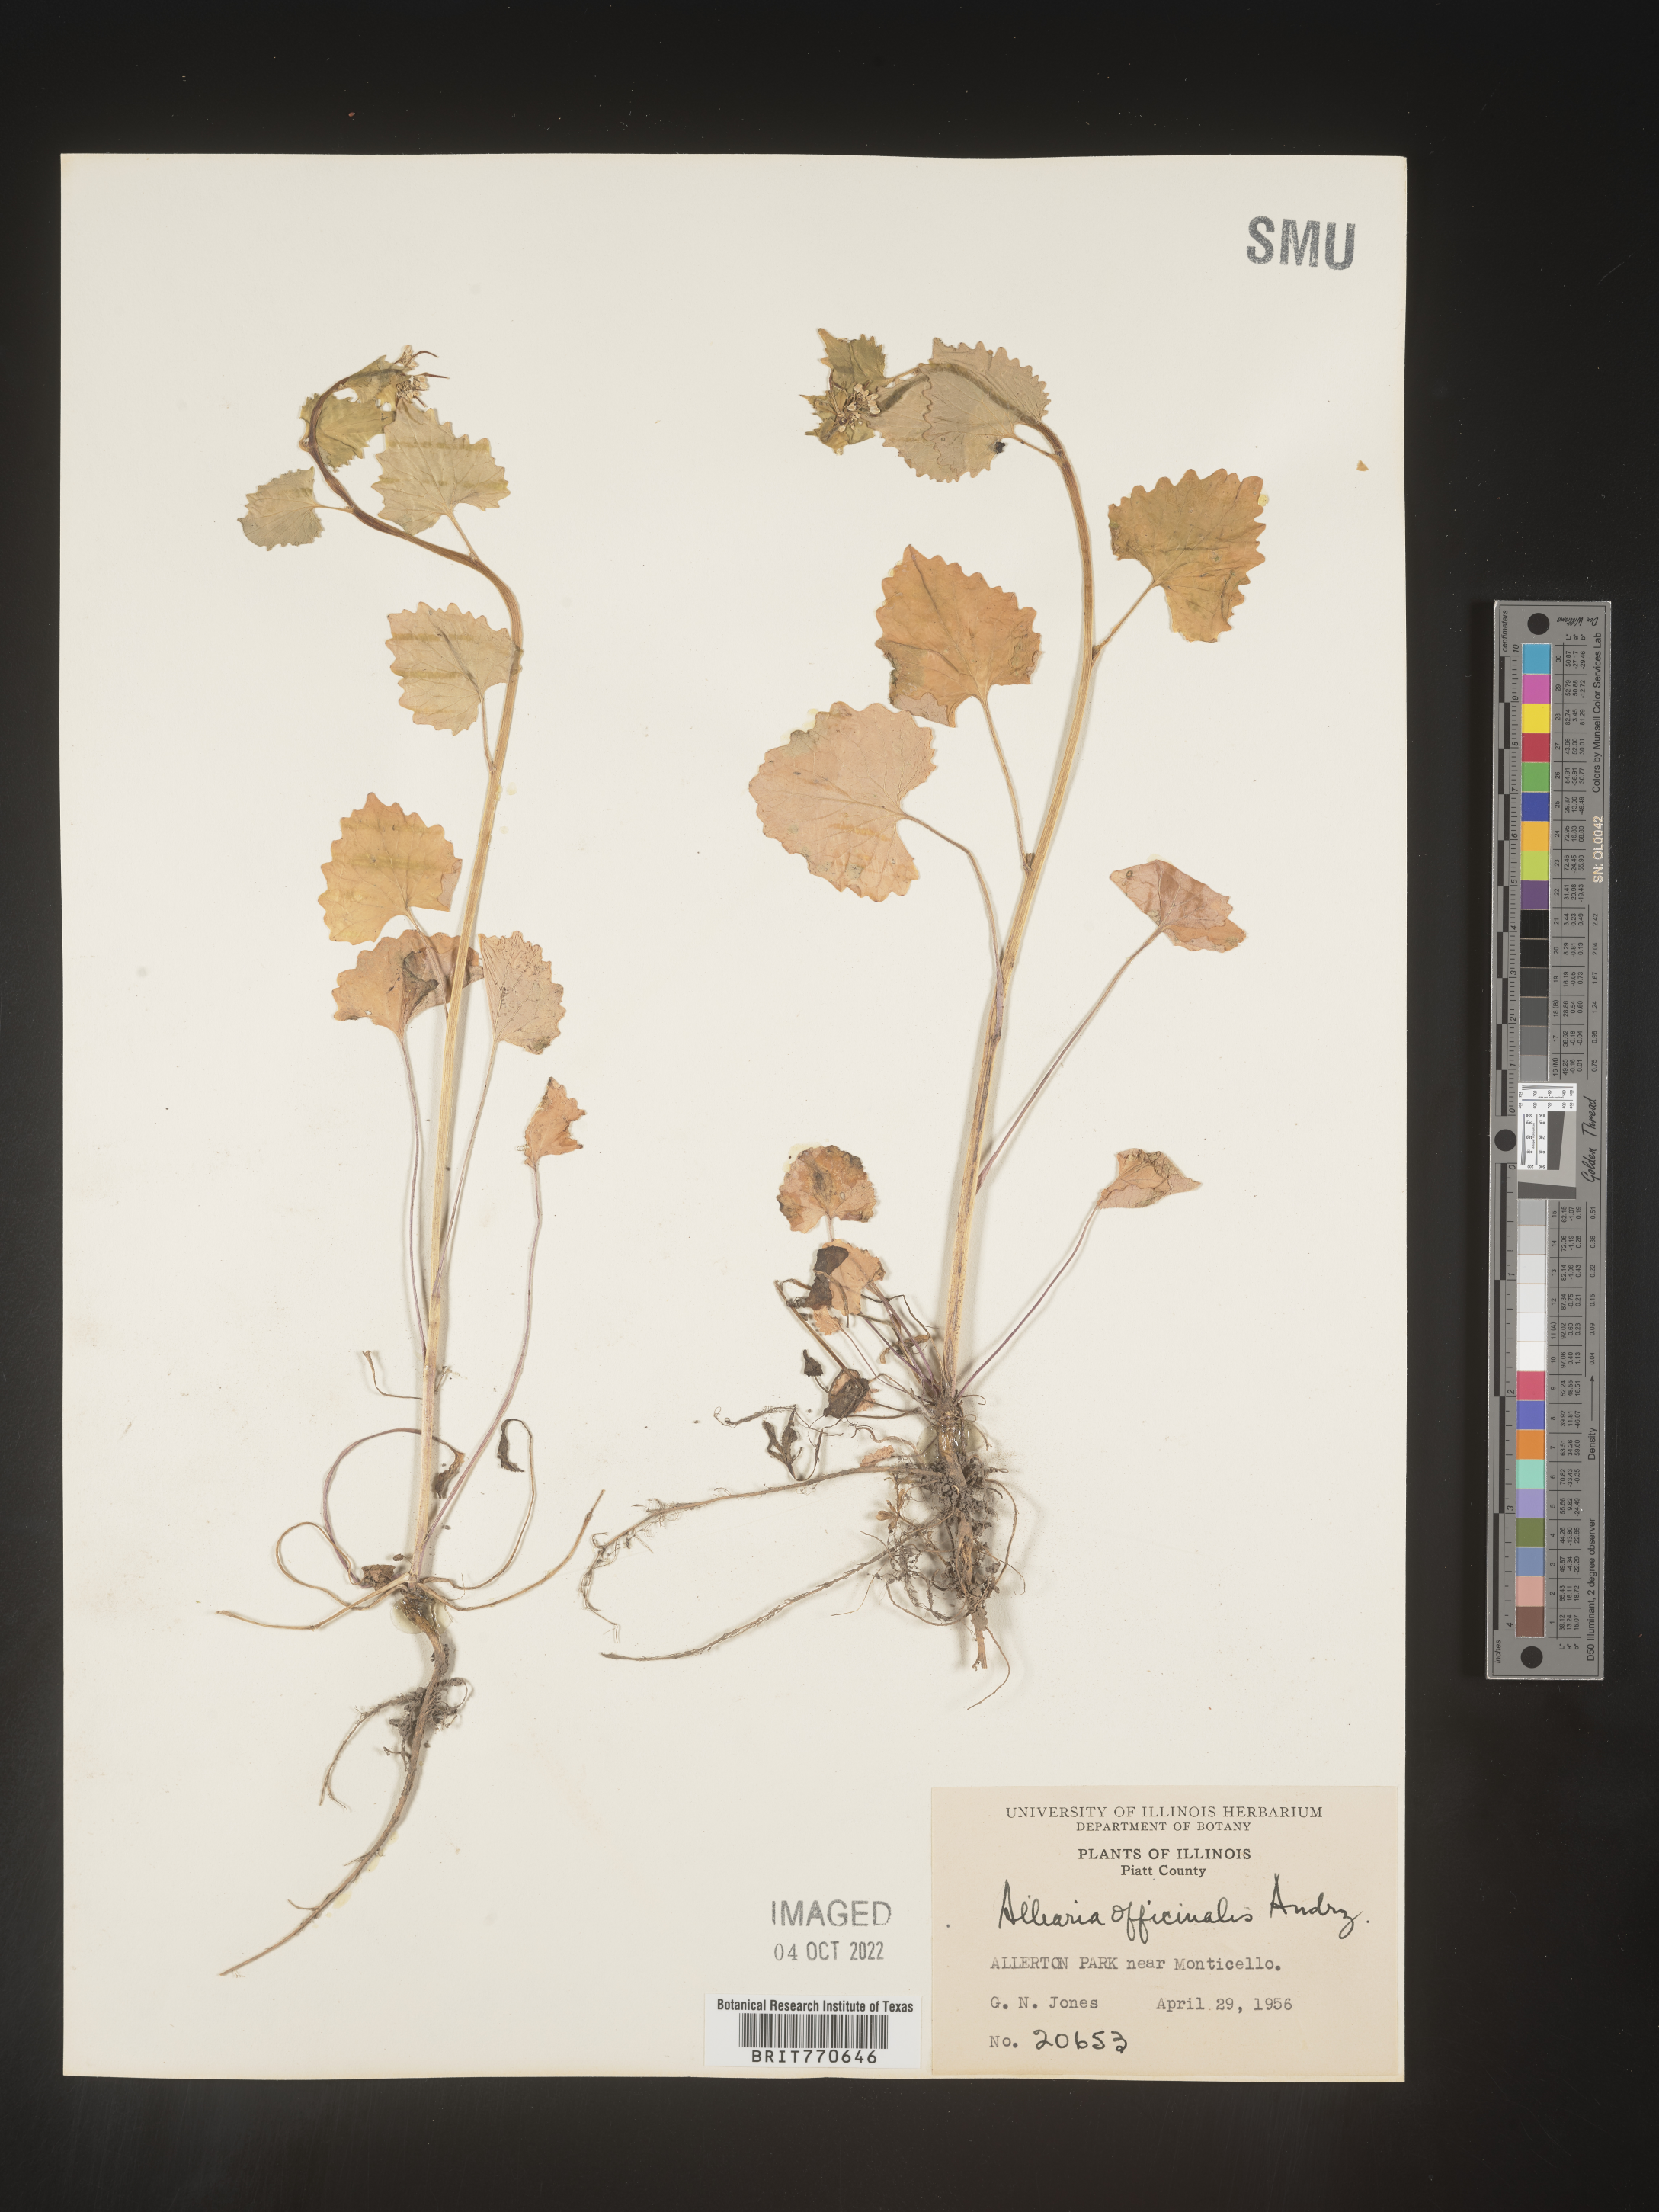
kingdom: Plantae
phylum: Tracheophyta
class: Magnoliopsida
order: Brassicales
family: Brassicaceae
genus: Alliaria
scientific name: Alliaria
